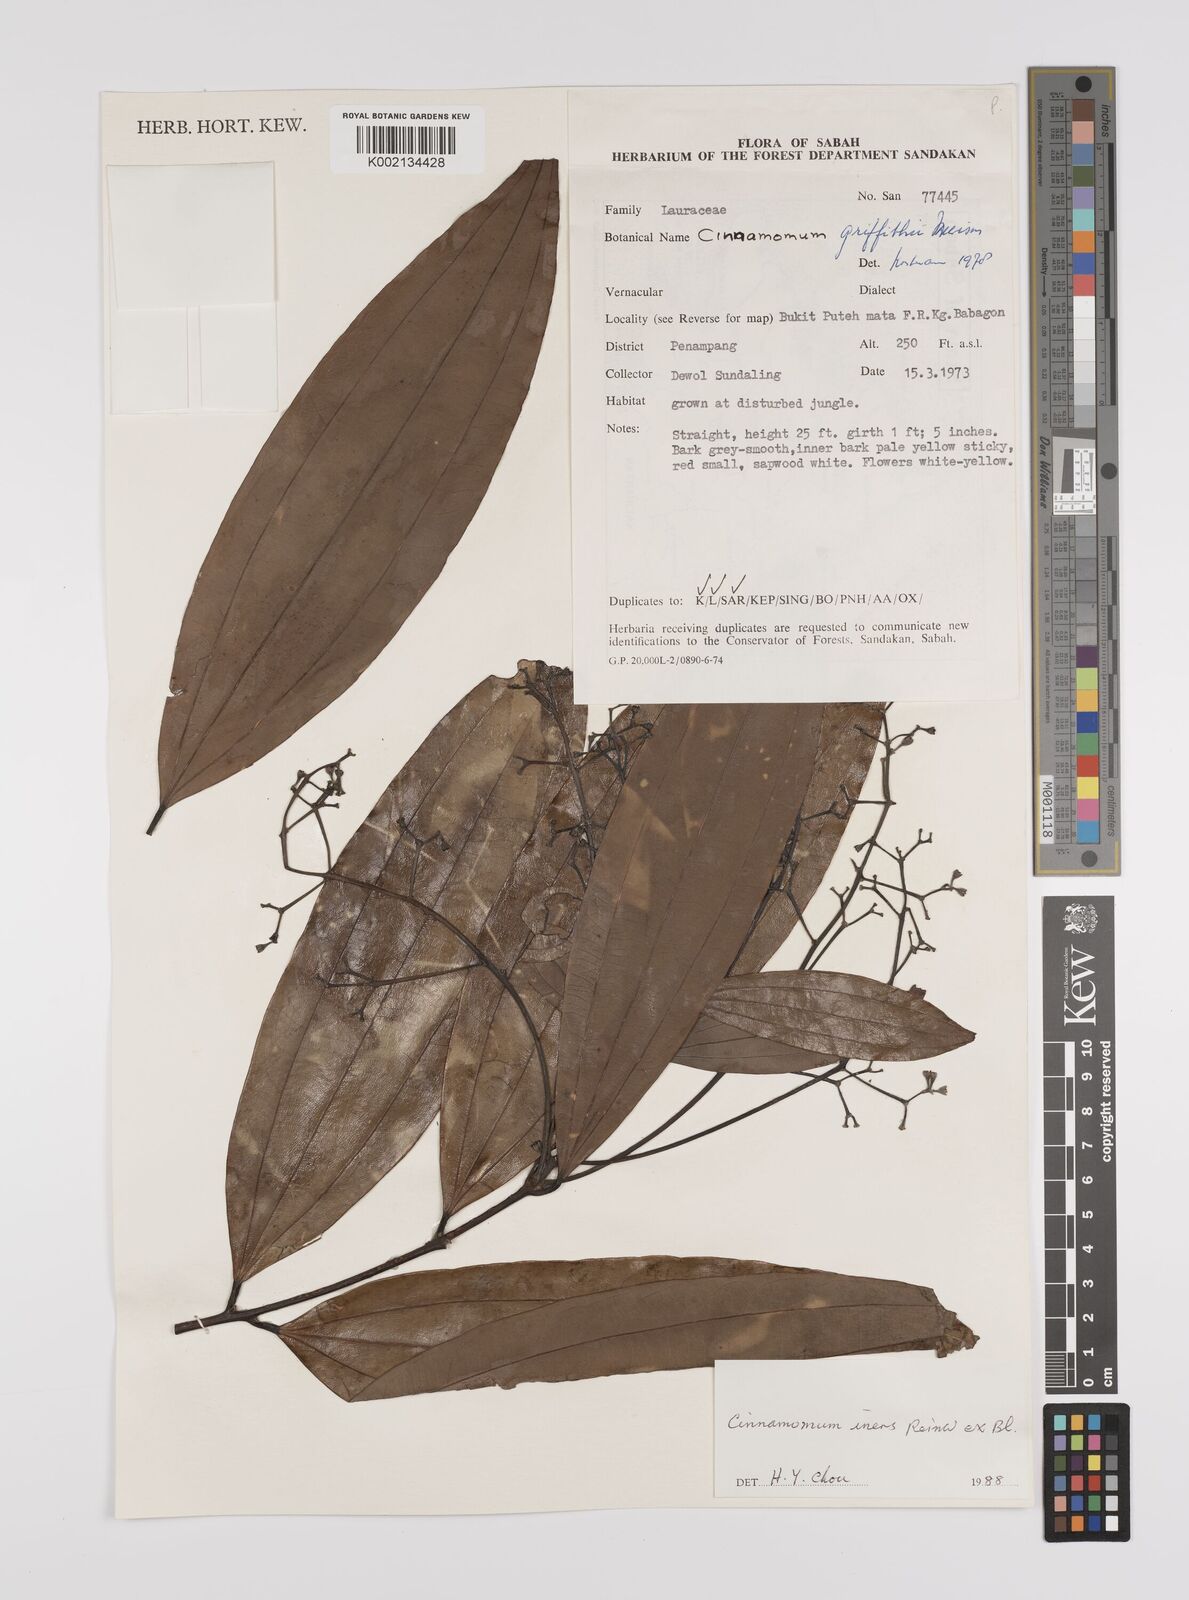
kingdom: Plantae
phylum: Tracheophyta
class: Magnoliopsida
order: Laurales
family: Lauraceae
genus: Cinnamomum
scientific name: Cinnamomum iners
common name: Wild cinnamon
